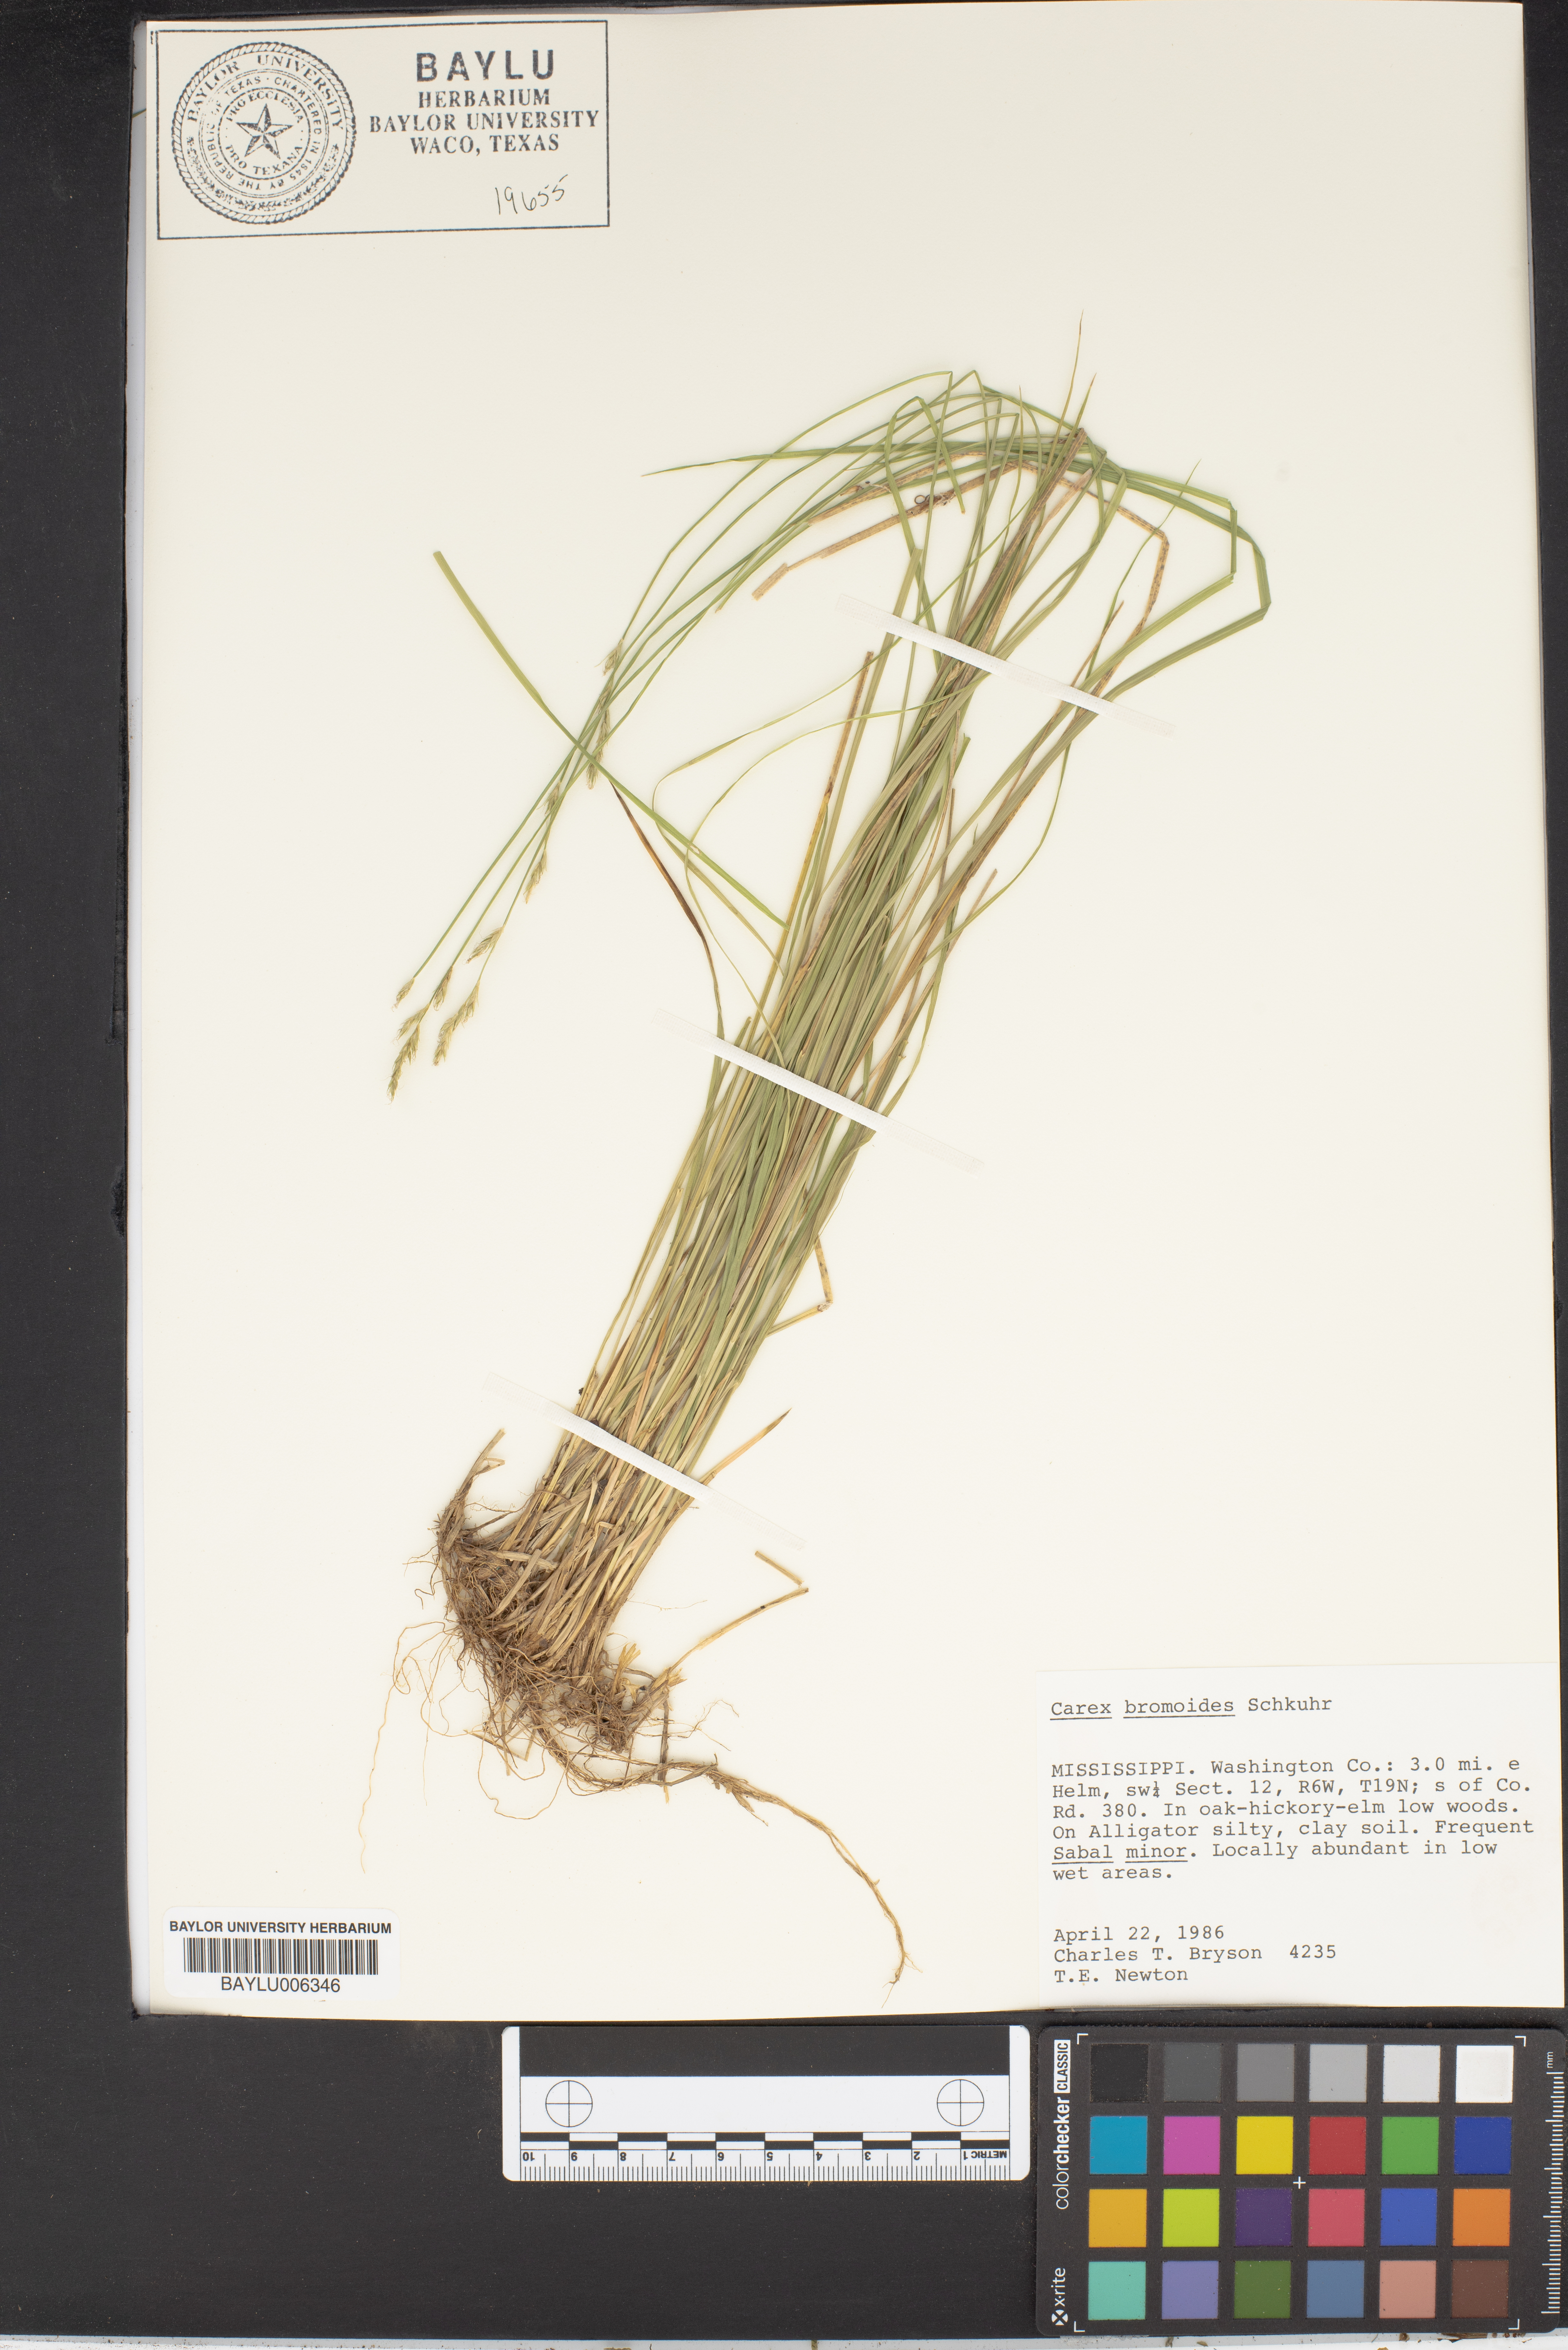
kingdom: Plantae
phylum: Tracheophyta
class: Liliopsida
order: Poales
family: Cyperaceae
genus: Carex
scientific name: Carex bromoides
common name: Brome hummock sedge
